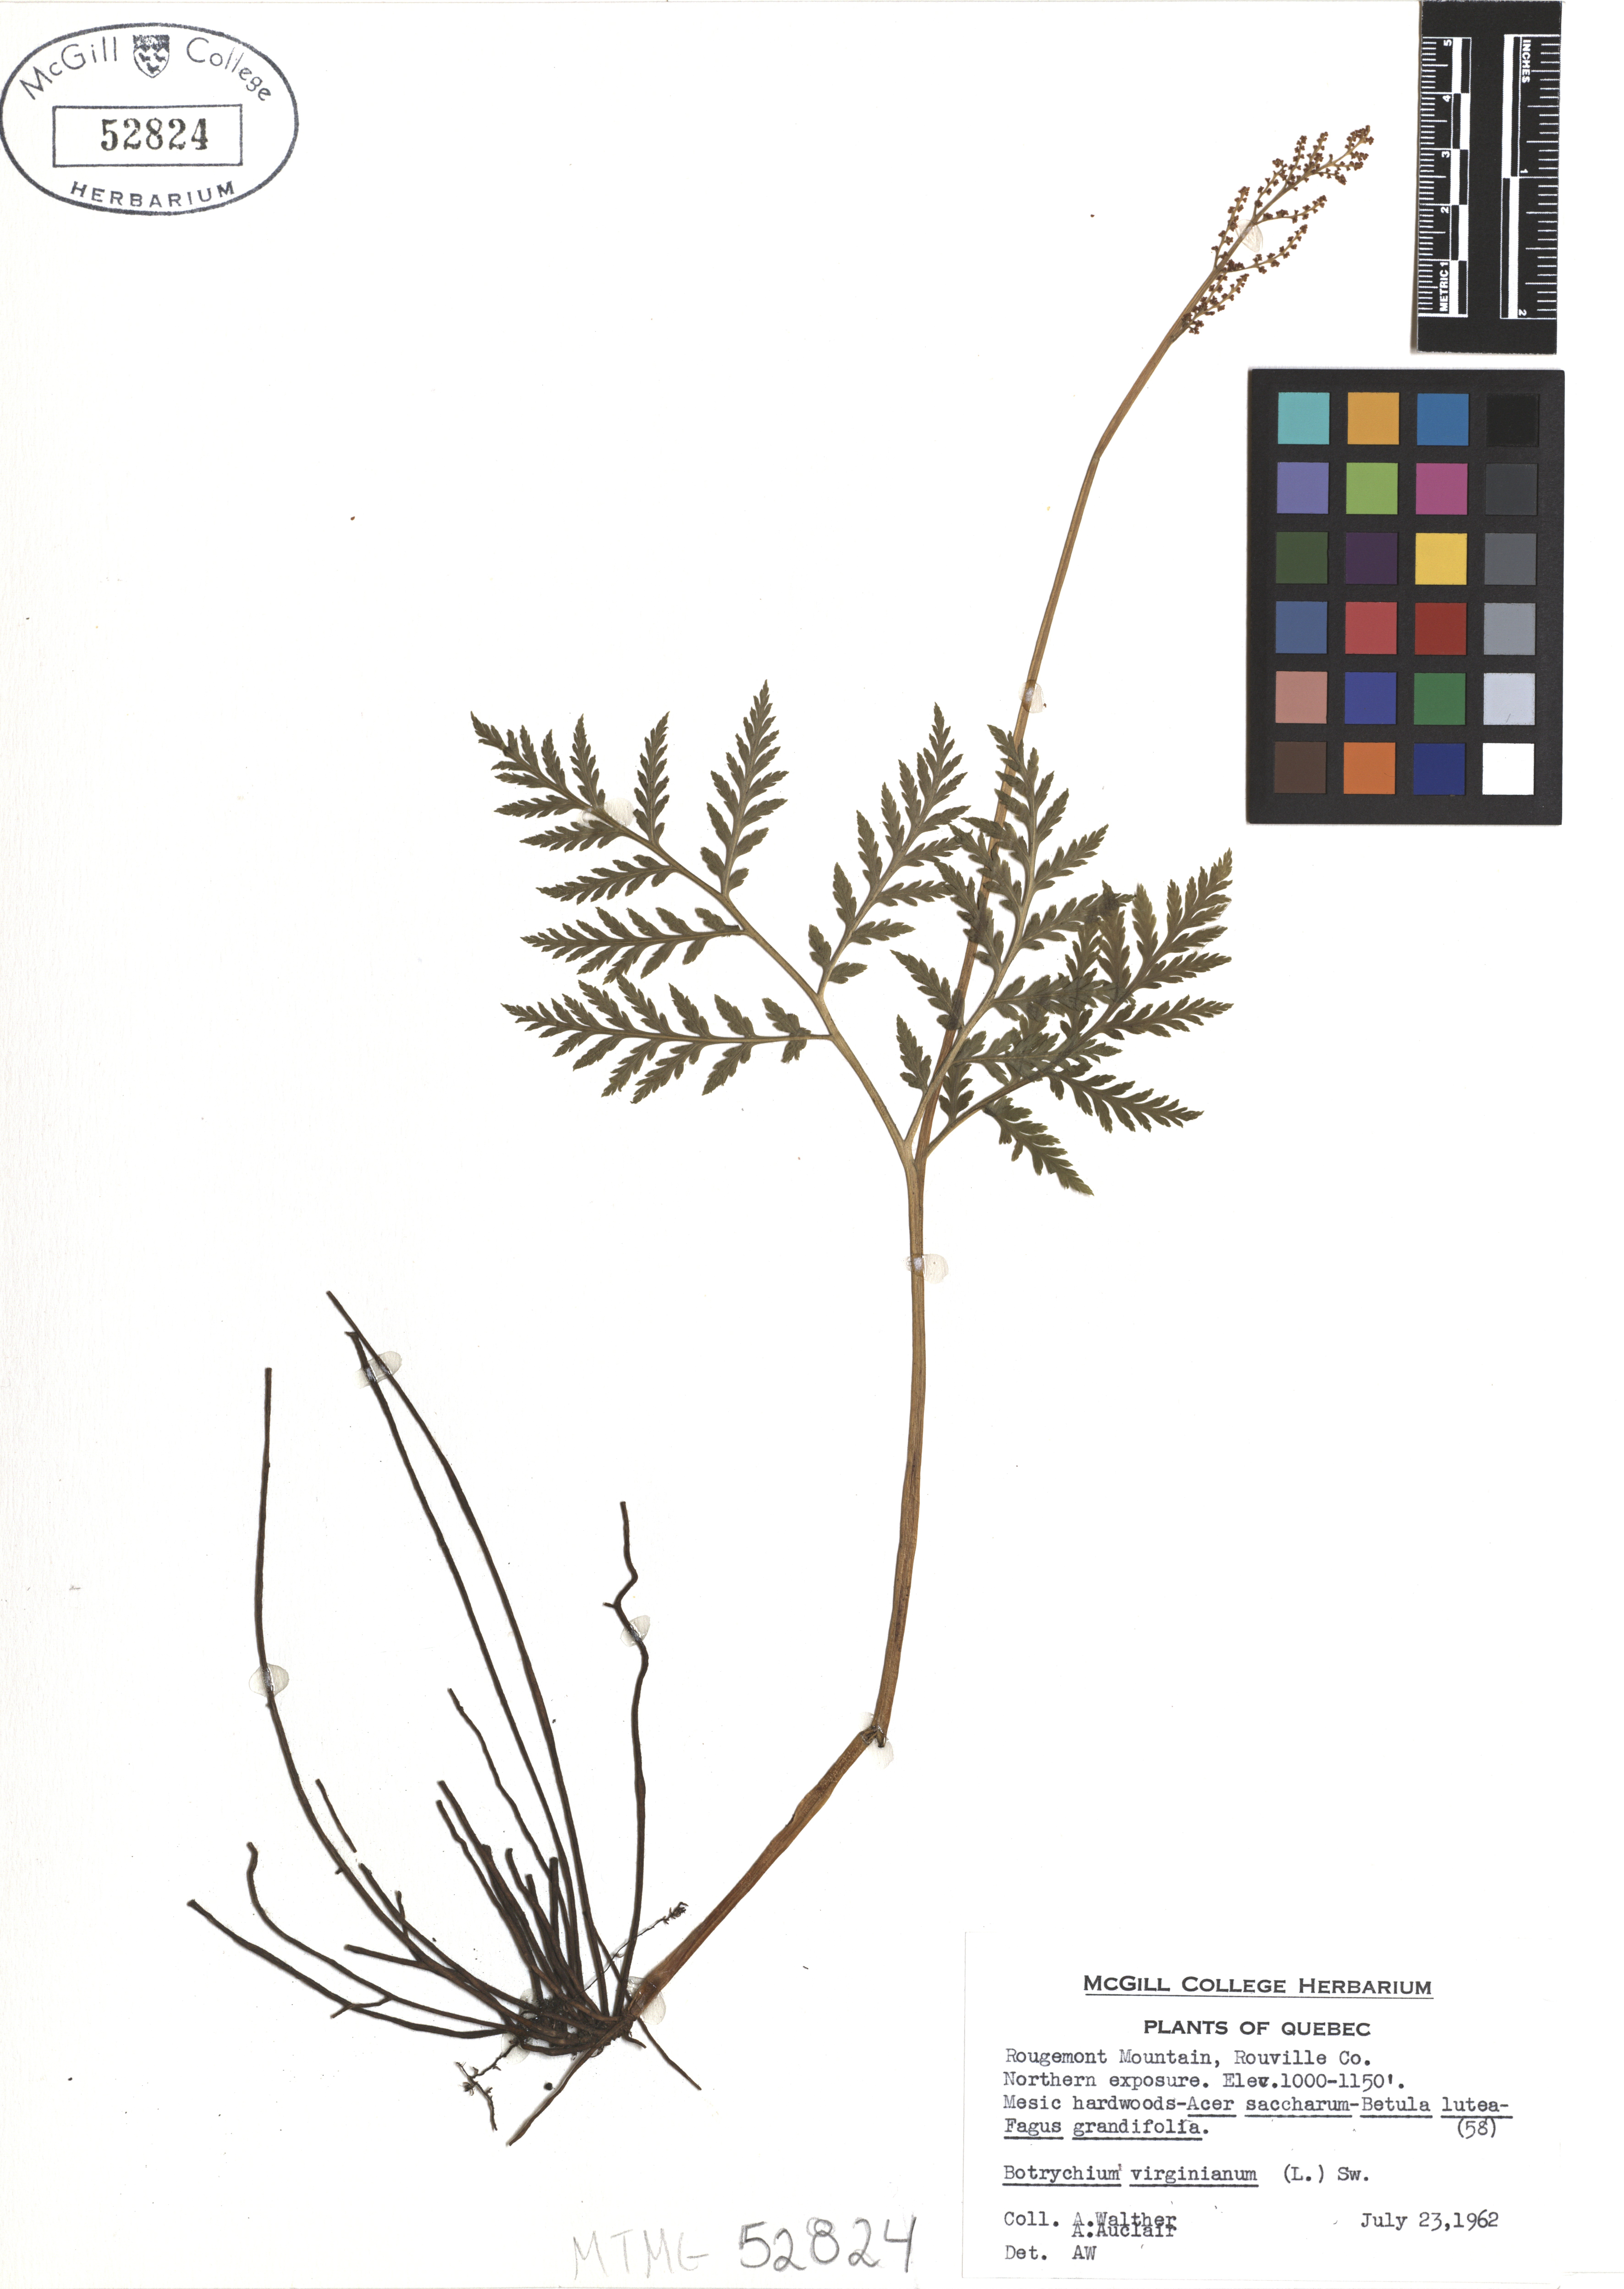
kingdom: Plantae
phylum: Tracheophyta
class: Polypodiopsida
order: Ophioglossales
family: Ophioglossaceae
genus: Botrypus
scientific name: Botrypus virginianus
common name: Common grapefern
